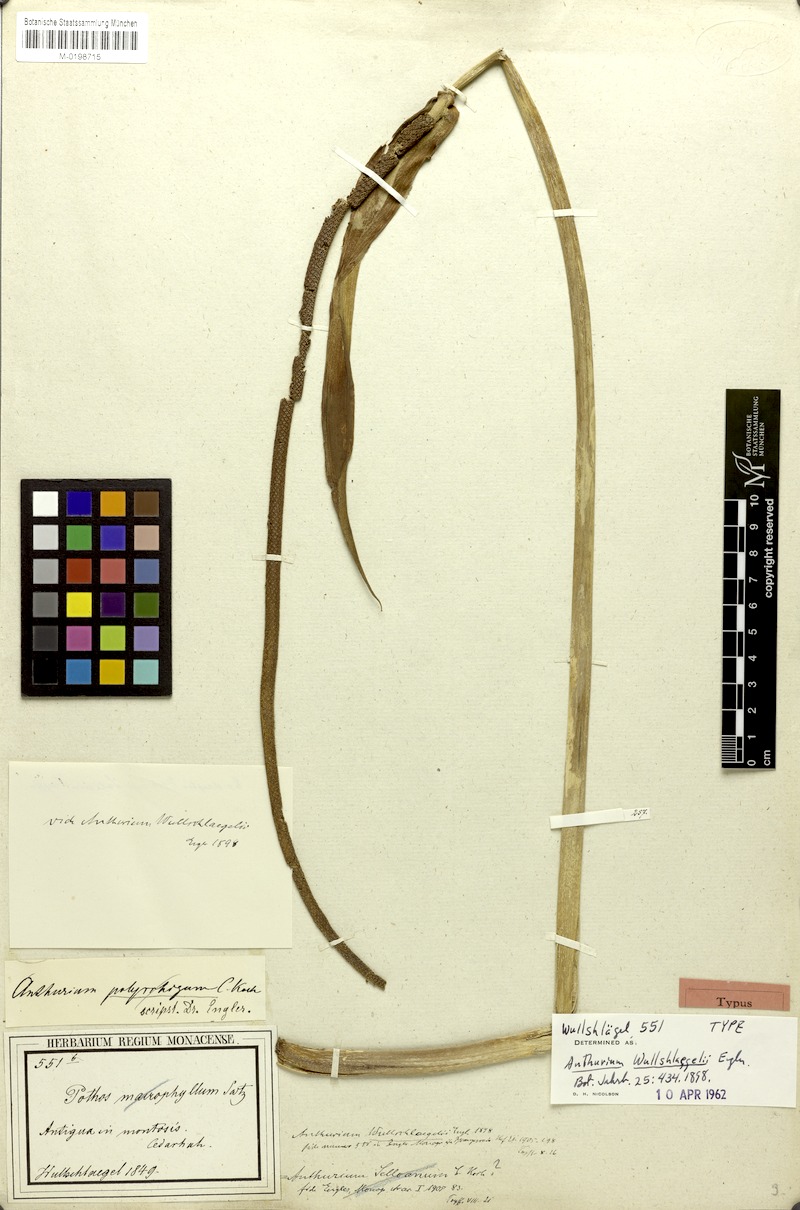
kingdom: Plantae
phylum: Tracheophyta
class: Liliopsida
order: Alismatales
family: Araceae
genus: Anthurium
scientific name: Anthurium grandifolium
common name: Monkey tail
